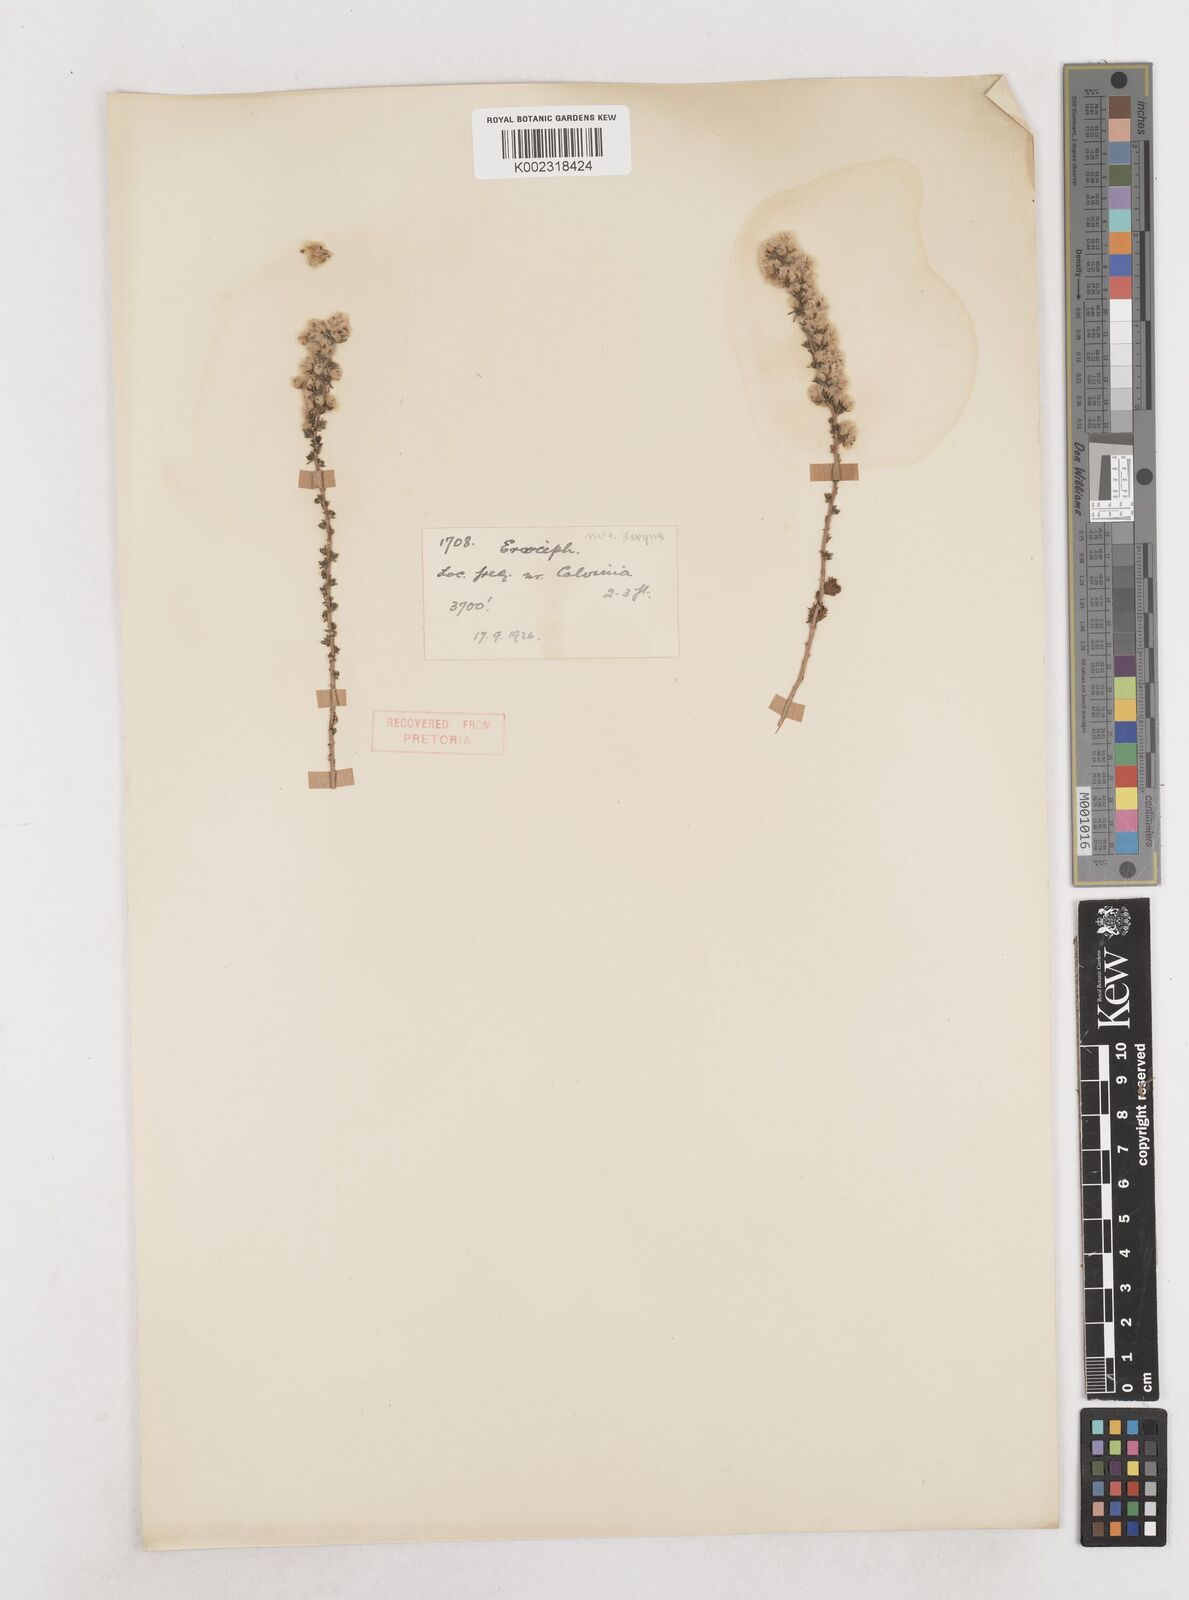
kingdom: Plantae
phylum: Tracheophyta
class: Magnoliopsida
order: Asterales
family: Asteraceae
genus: Eriocephalus
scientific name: Eriocephalus
